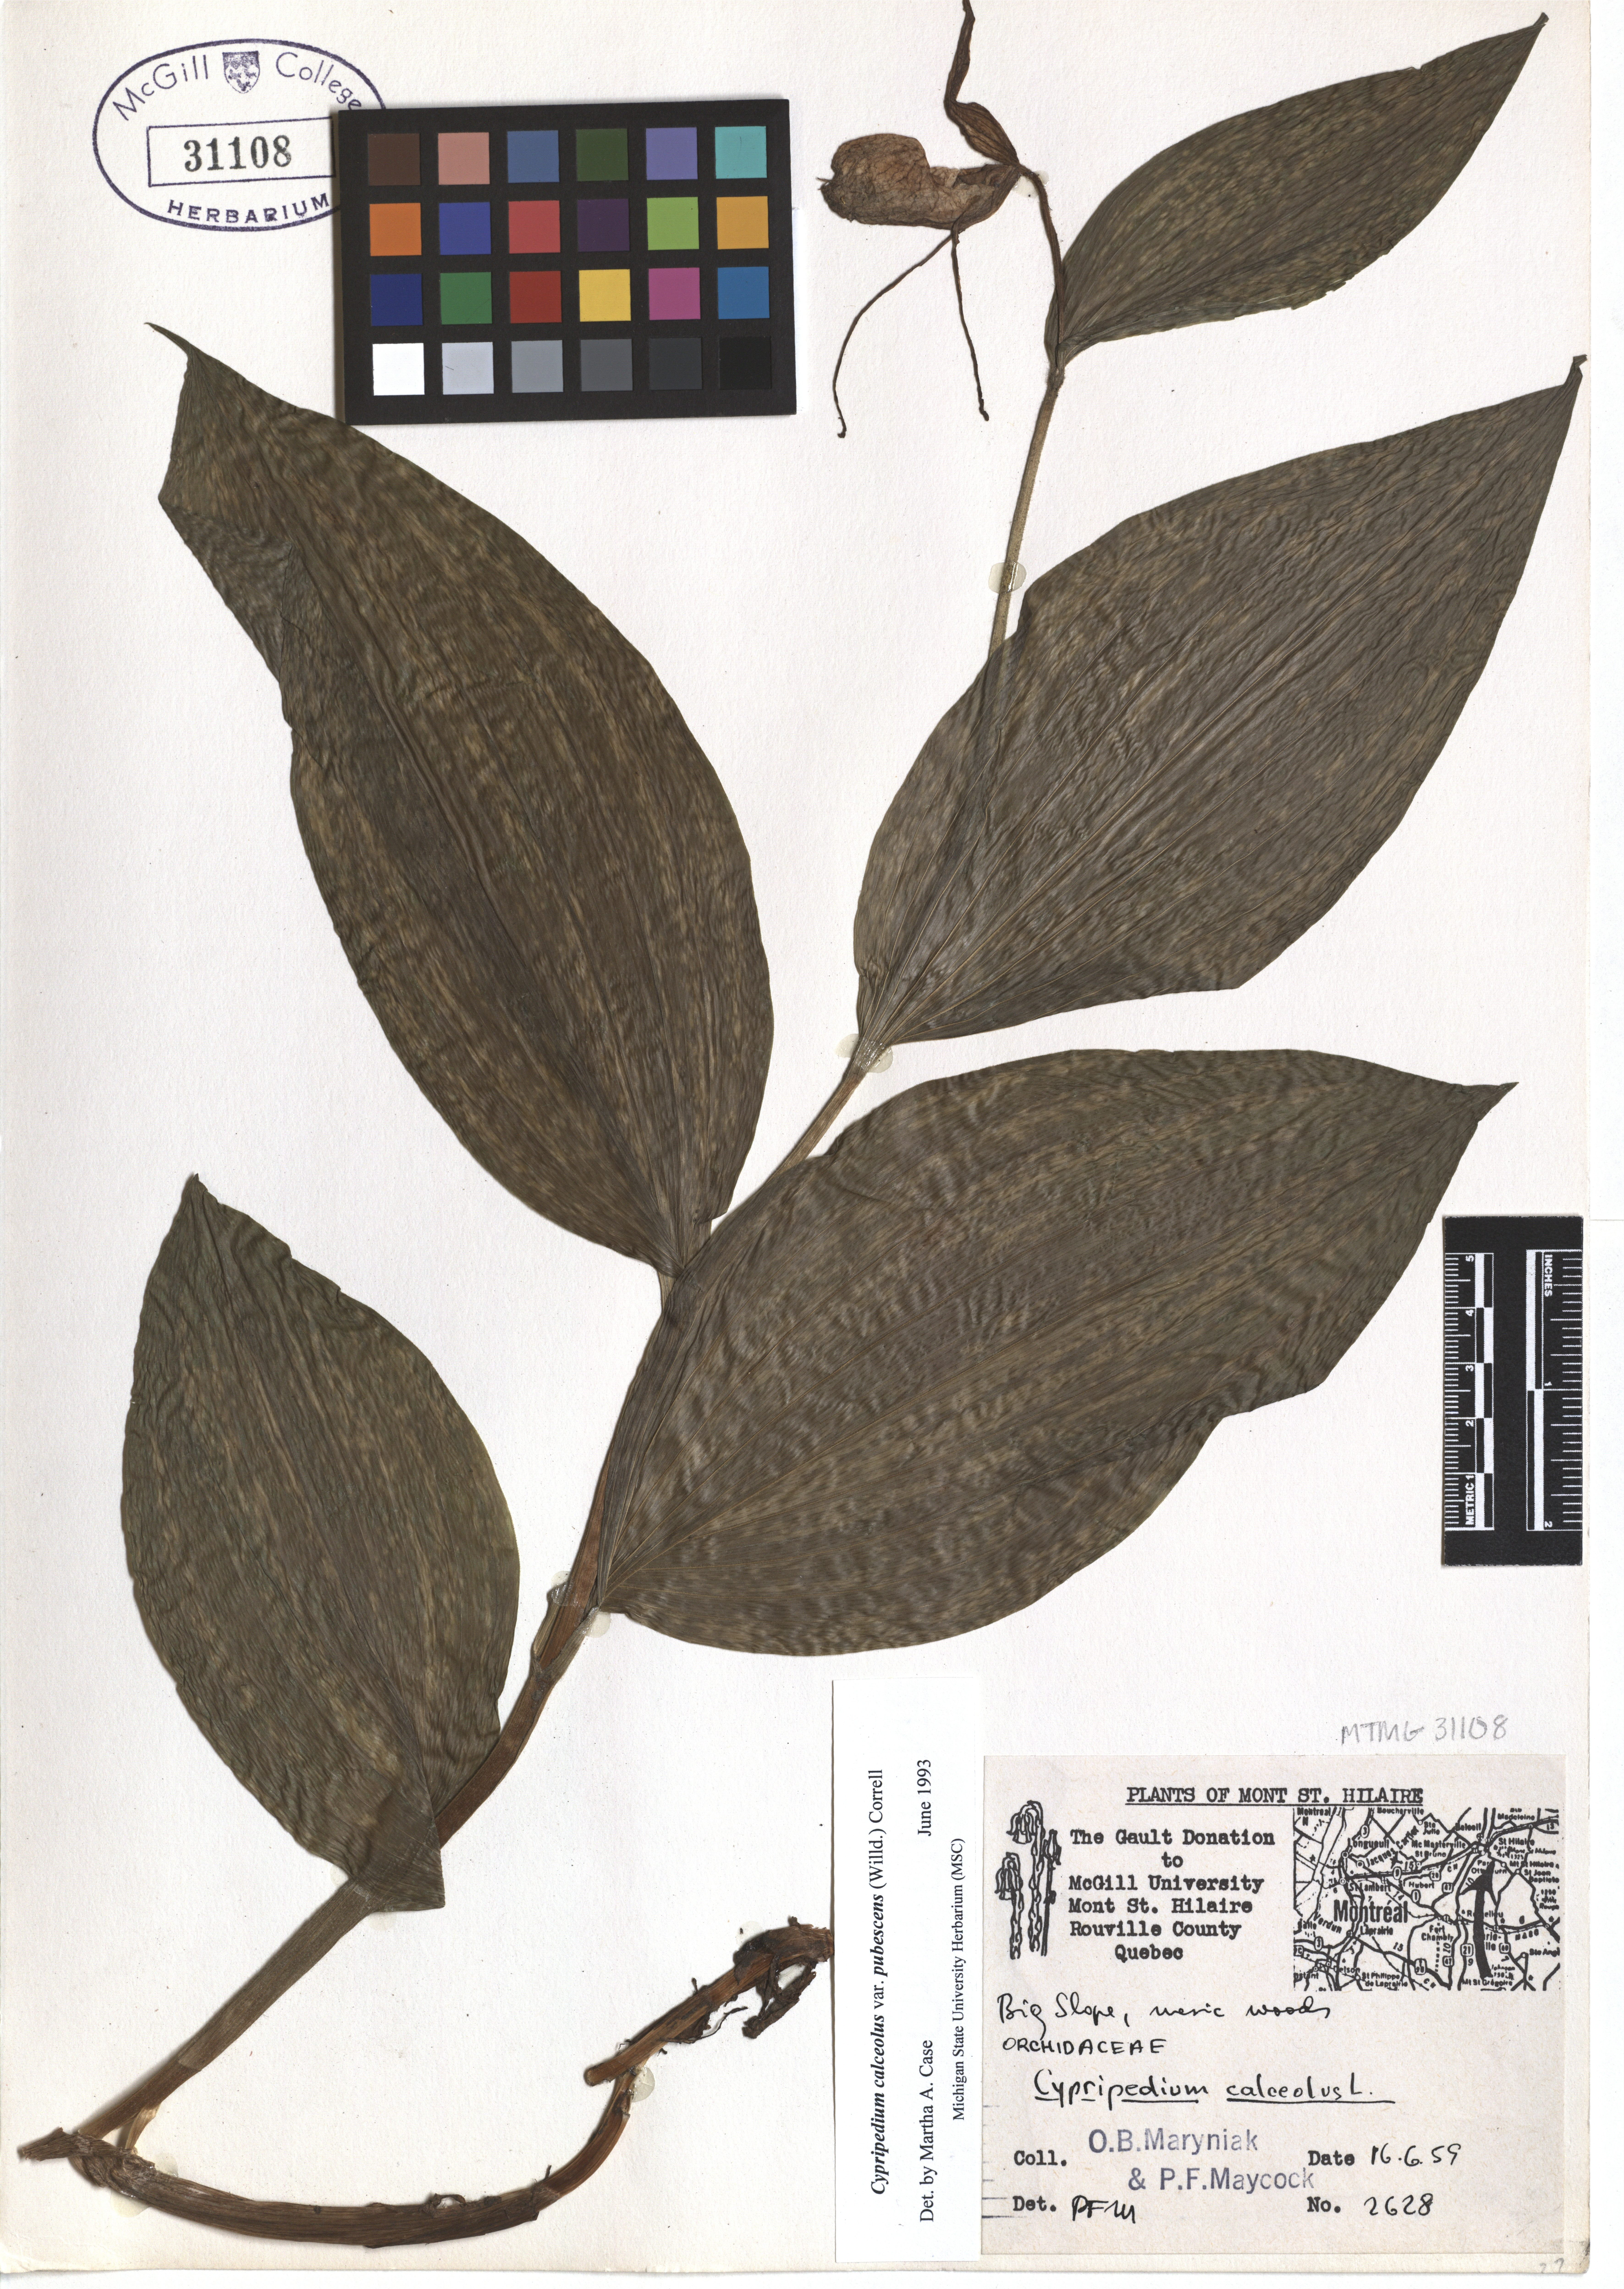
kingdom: Plantae
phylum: Tracheophyta
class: Liliopsida
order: Asparagales
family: Orchidaceae
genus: Cypripedium
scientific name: Cypripedium calceolus
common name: Lady's-slipper
